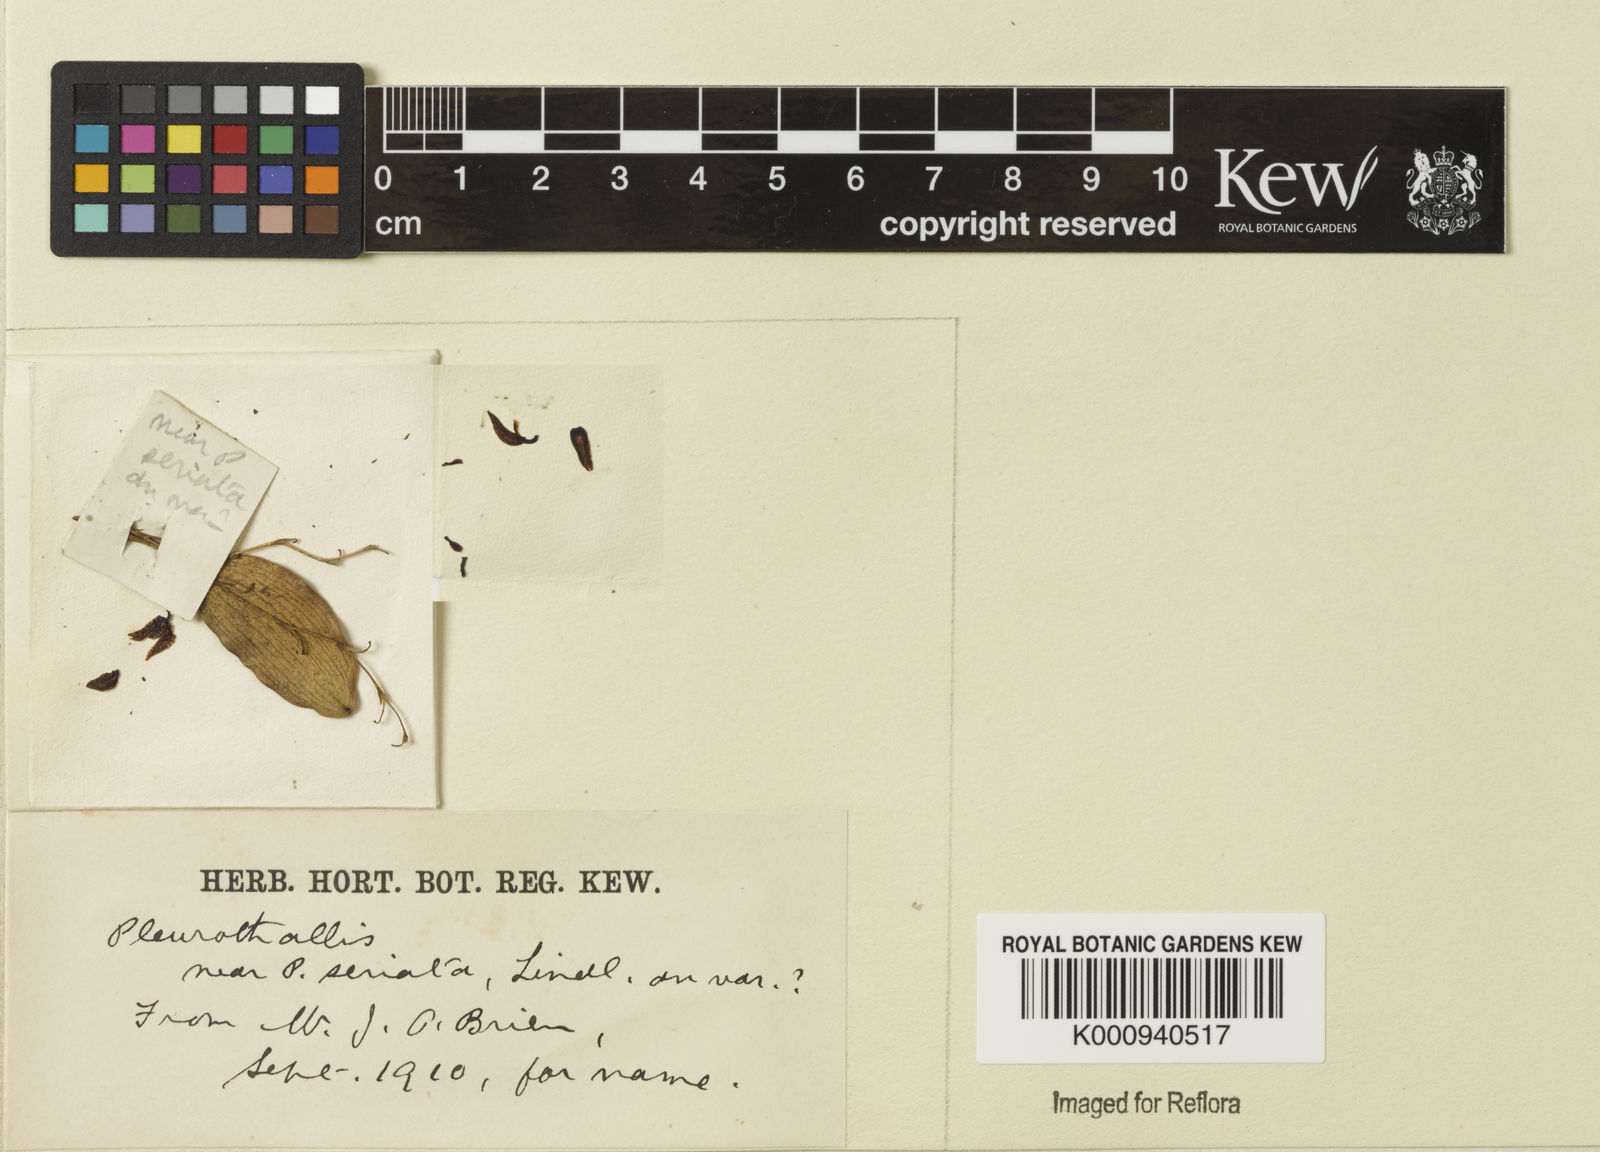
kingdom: Plantae
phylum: Tracheophyta
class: Liliopsida
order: Asparagales
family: Orchidaceae
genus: Pabstiella
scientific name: Pabstiella seriata
